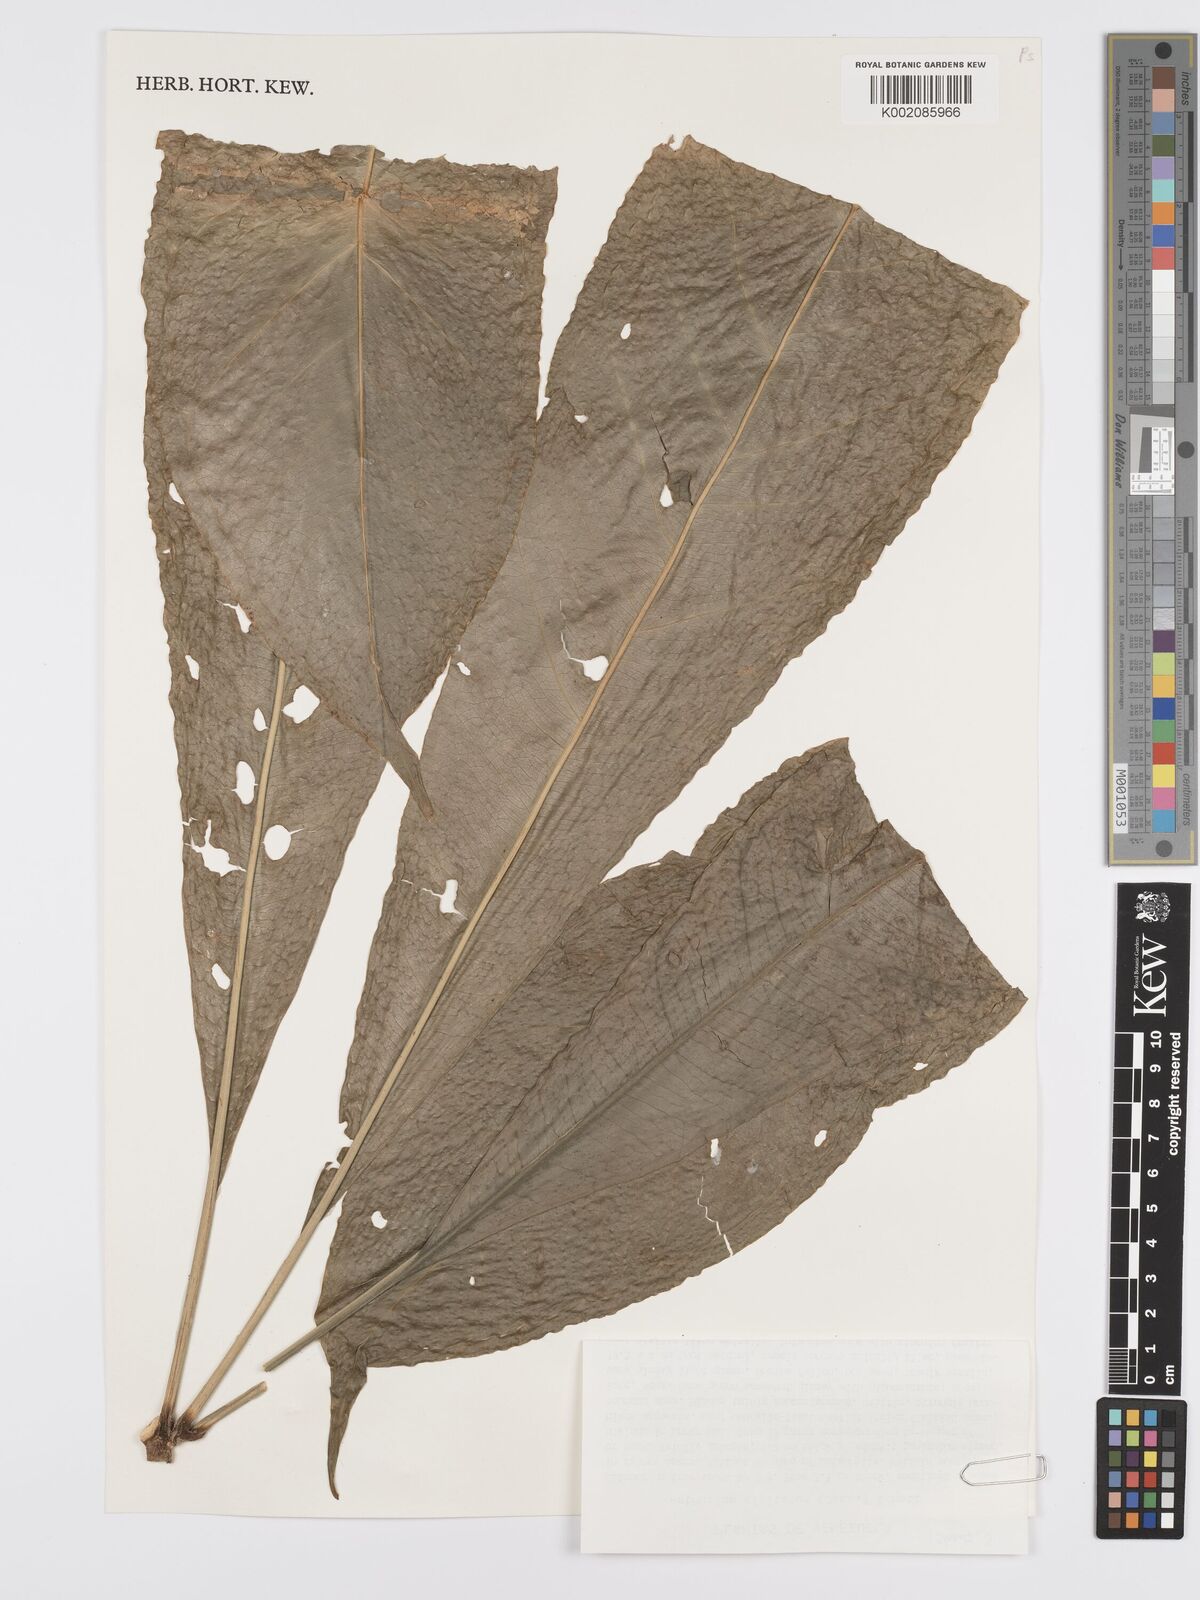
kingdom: Plantae
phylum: Tracheophyta
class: Liliopsida
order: Alismatales
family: Araceae
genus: Anthurium
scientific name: Anthurium digitatum
